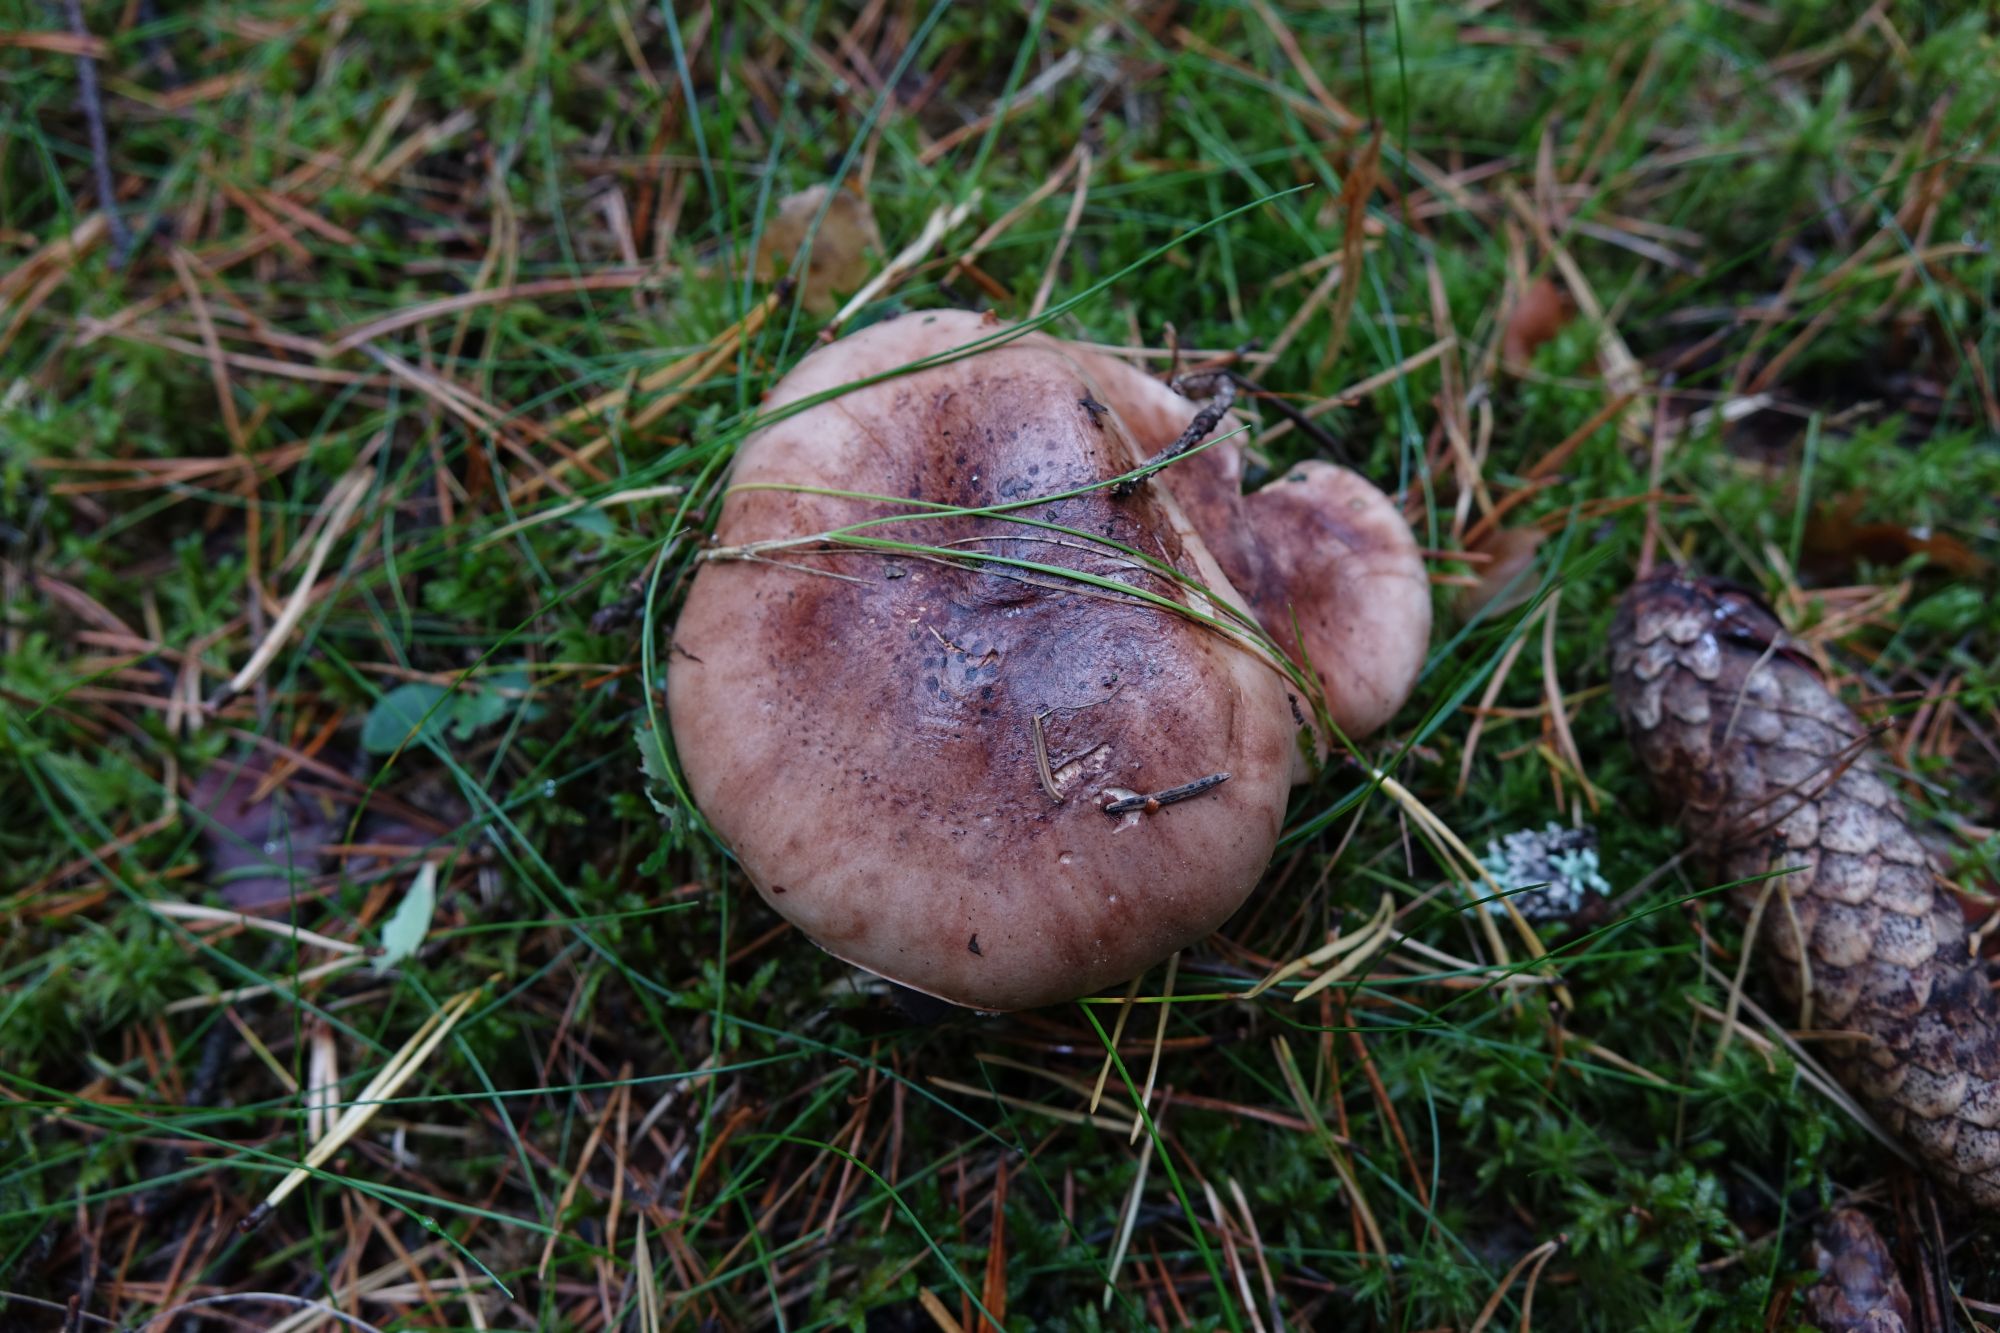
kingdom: Fungi
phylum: Basidiomycota
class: Agaricomycetes
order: Agaricales
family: Tricholomataceae
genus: Tricholoma
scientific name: Tricholoma pessundatum
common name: Tacked knight
